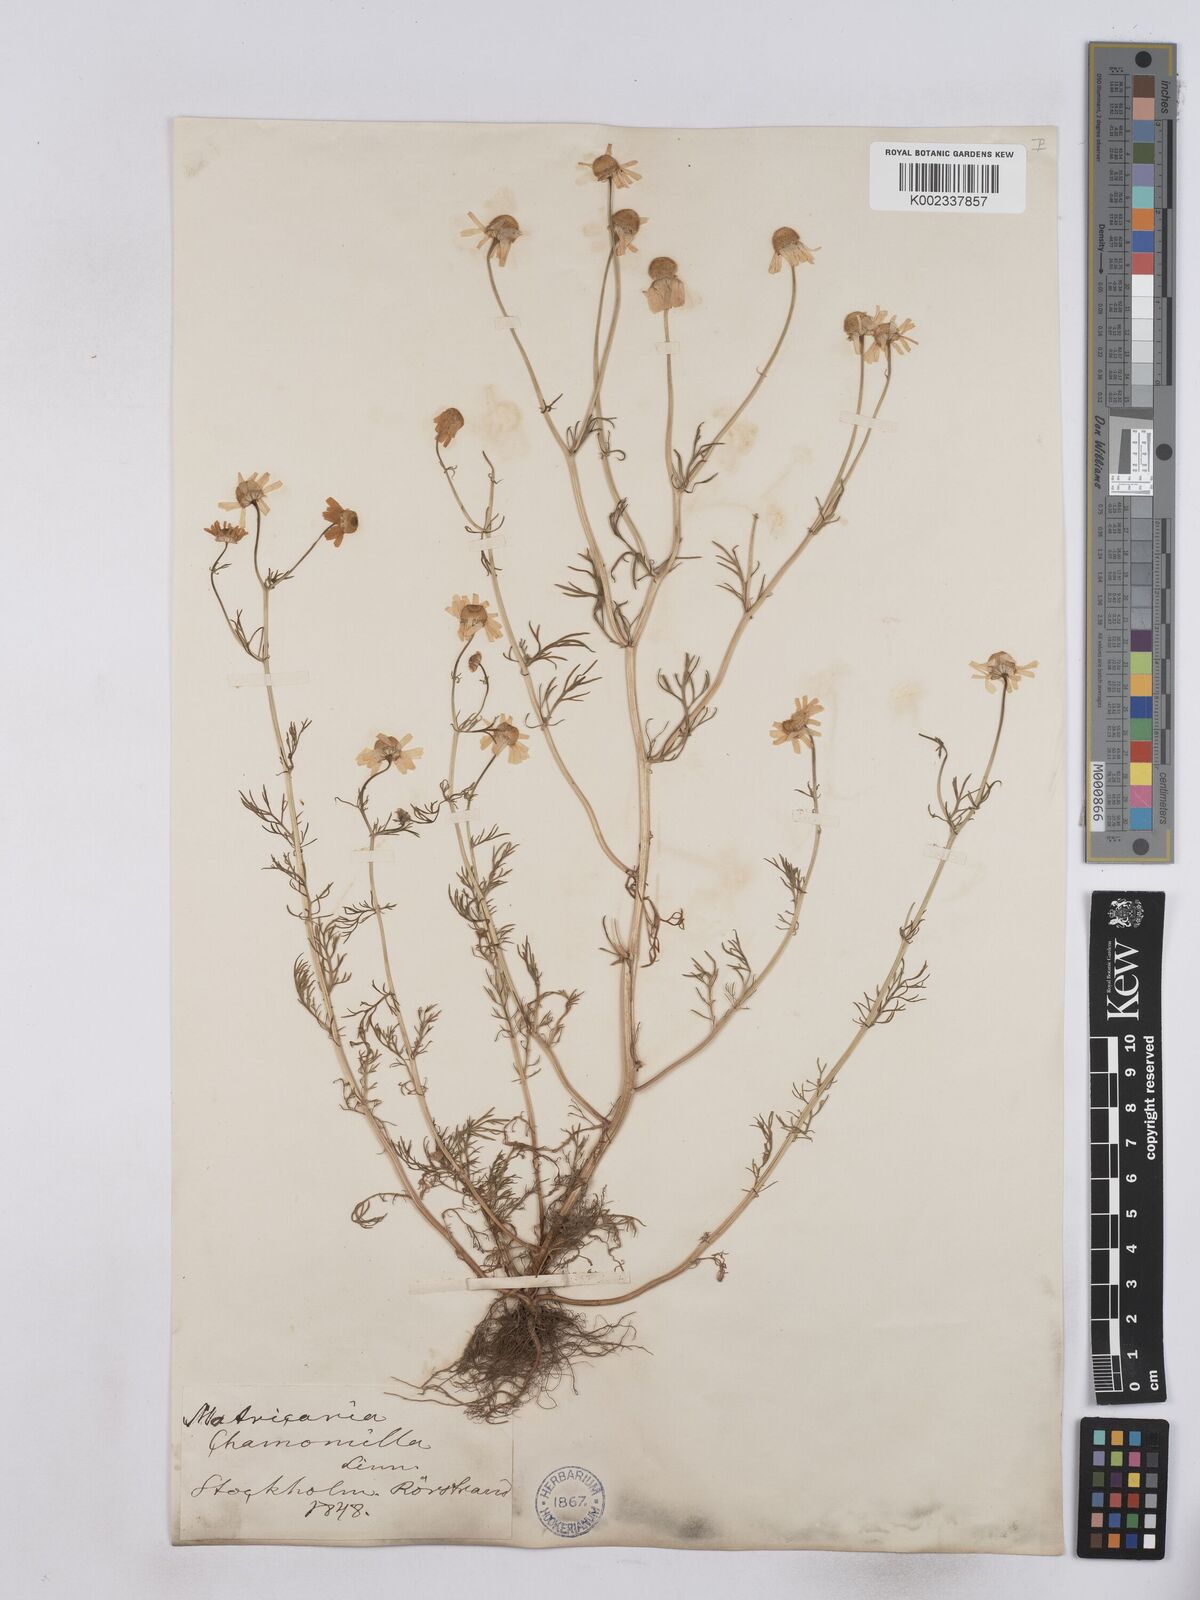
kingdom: Plantae
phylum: Tracheophyta
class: Magnoliopsida
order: Asterales
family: Asteraceae
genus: Matricaria
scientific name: Matricaria chamomilla
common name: Scented mayweed
